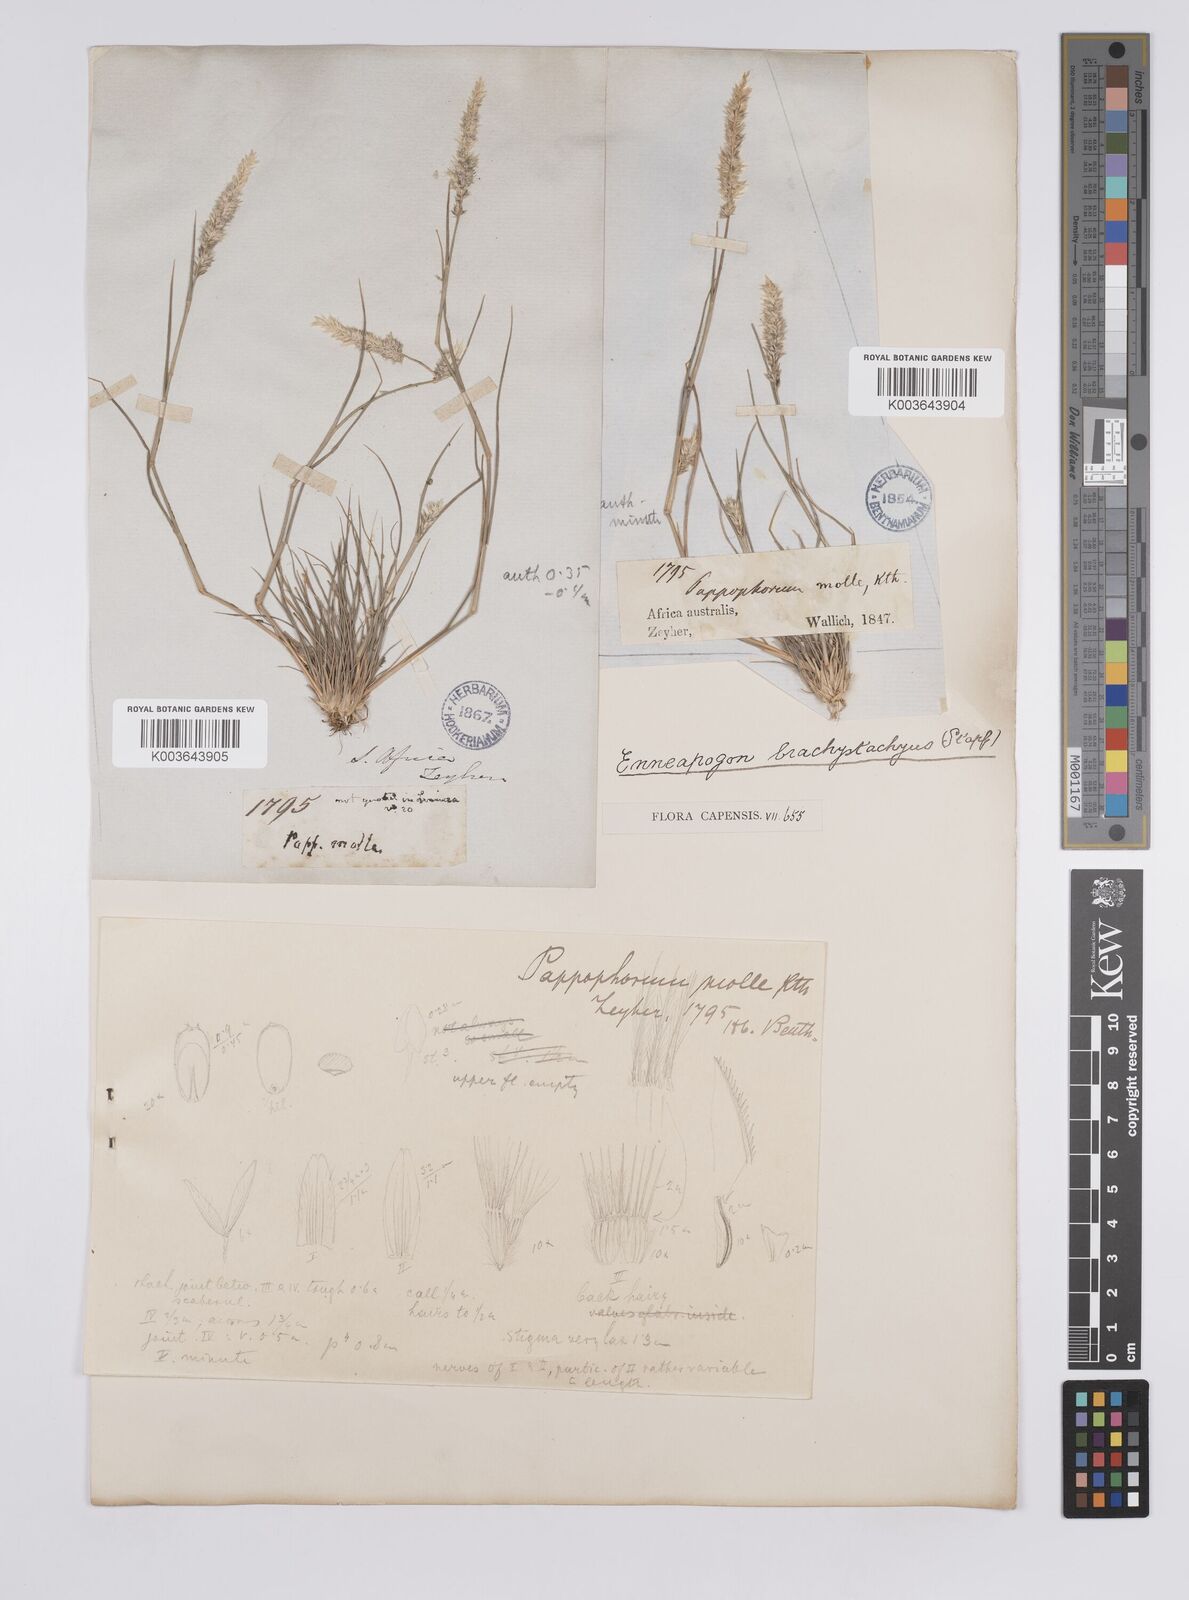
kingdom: Plantae
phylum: Tracheophyta
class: Liliopsida
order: Poales
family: Poaceae
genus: Enneapogon
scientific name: Enneapogon desvauxii
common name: Feather pappus grass
